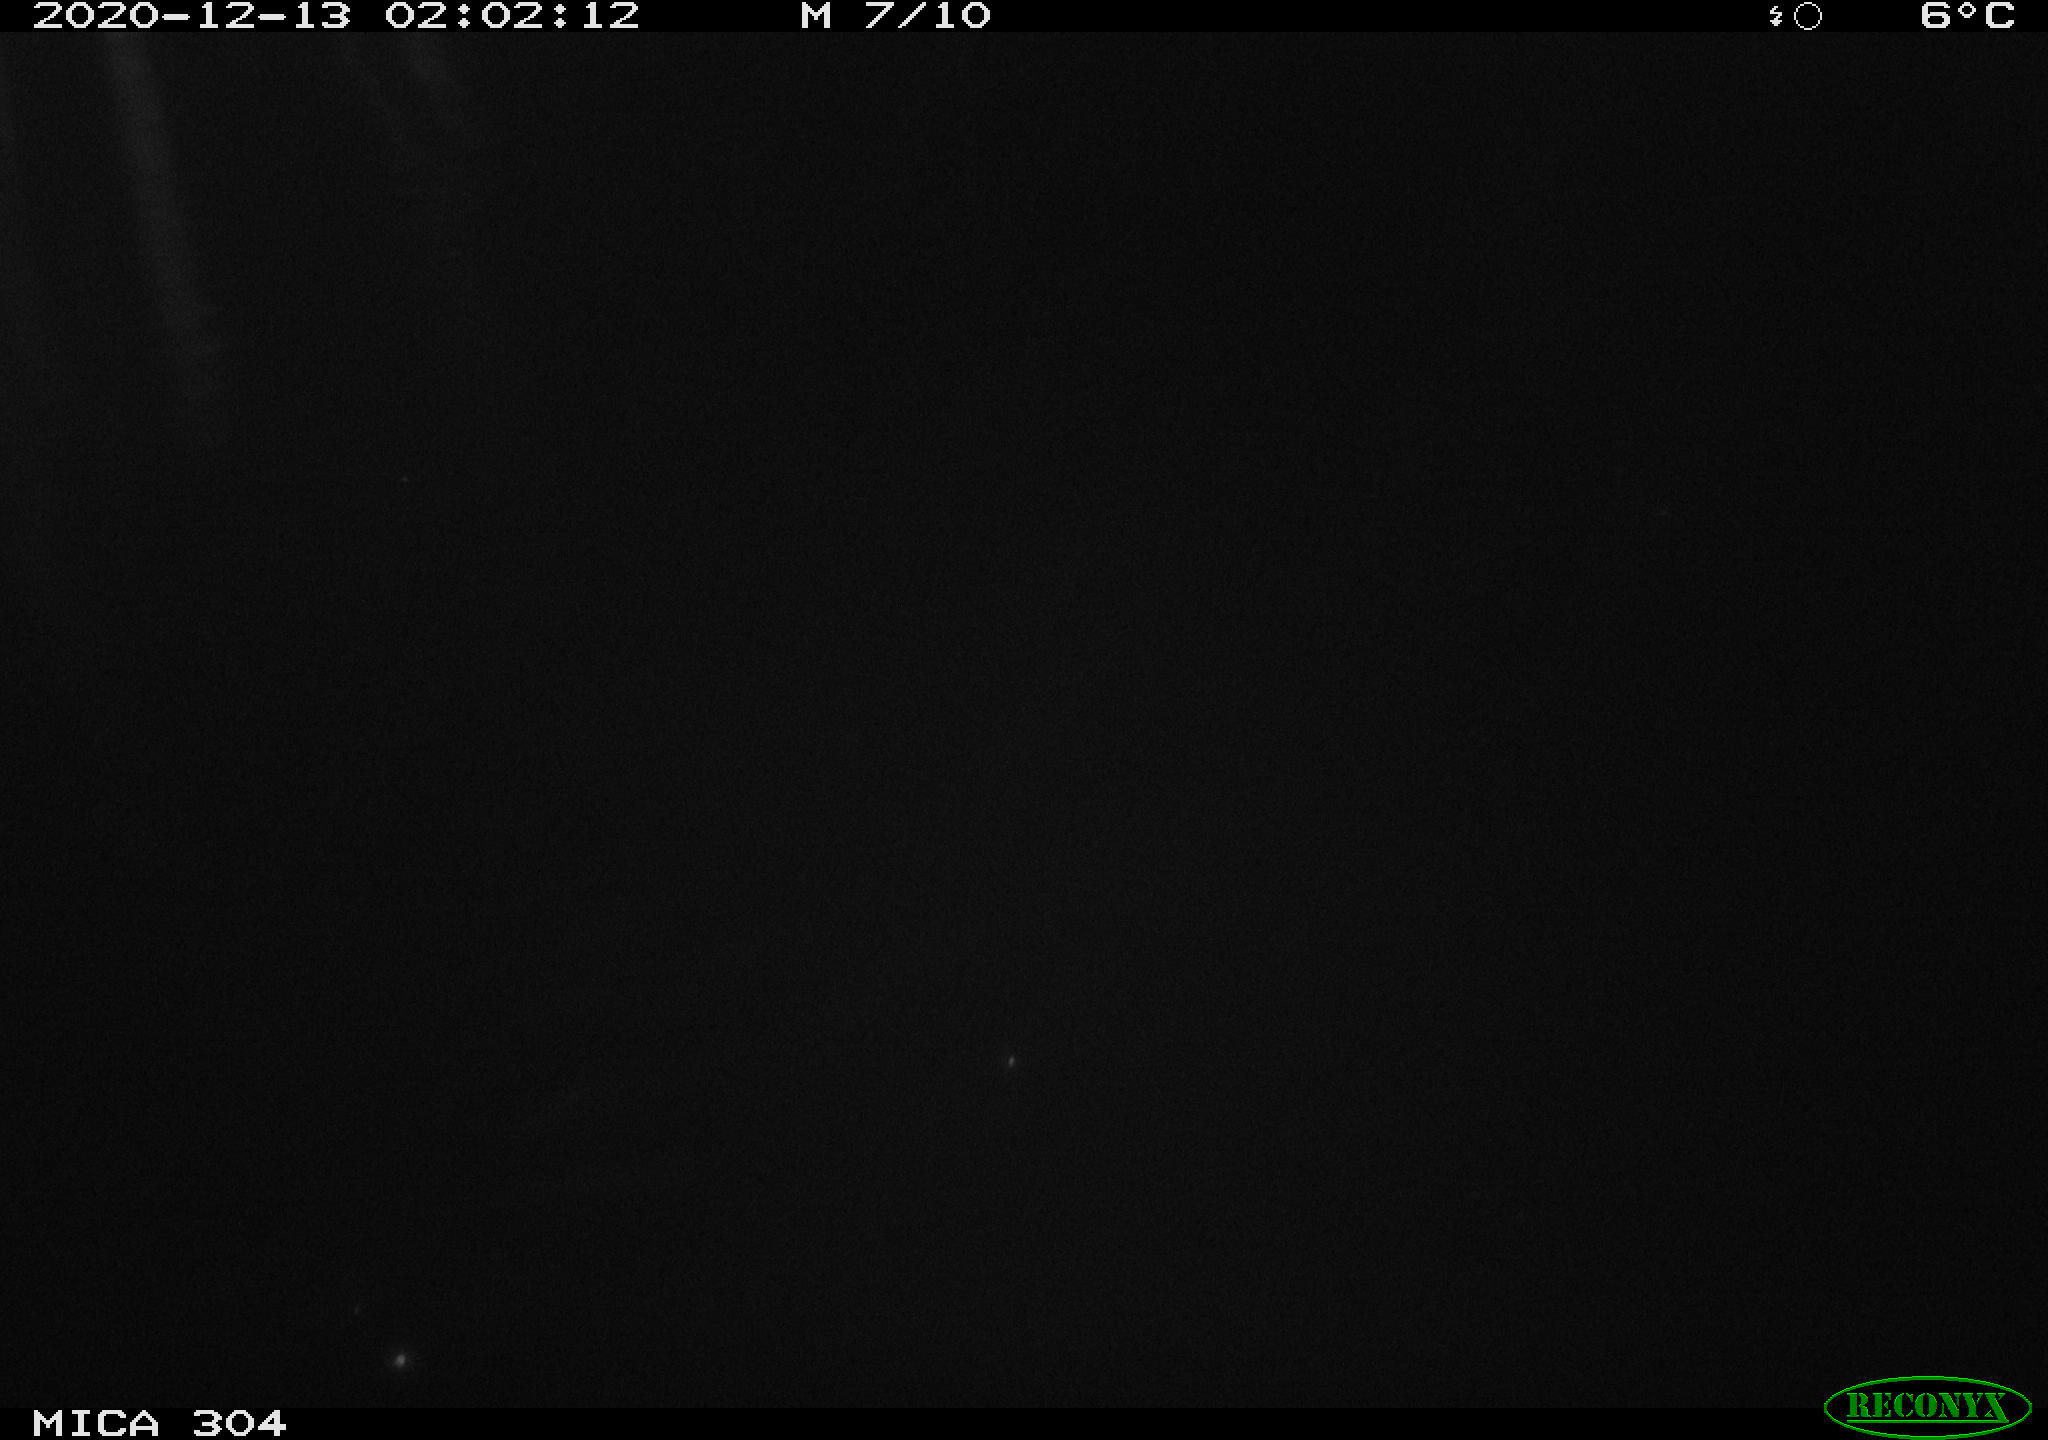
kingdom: Animalia
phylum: Chordata
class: Mammalia
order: Rodentia
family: Cricetidae
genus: Ondatra
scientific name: Ondatra zibethicus
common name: Muskrat
